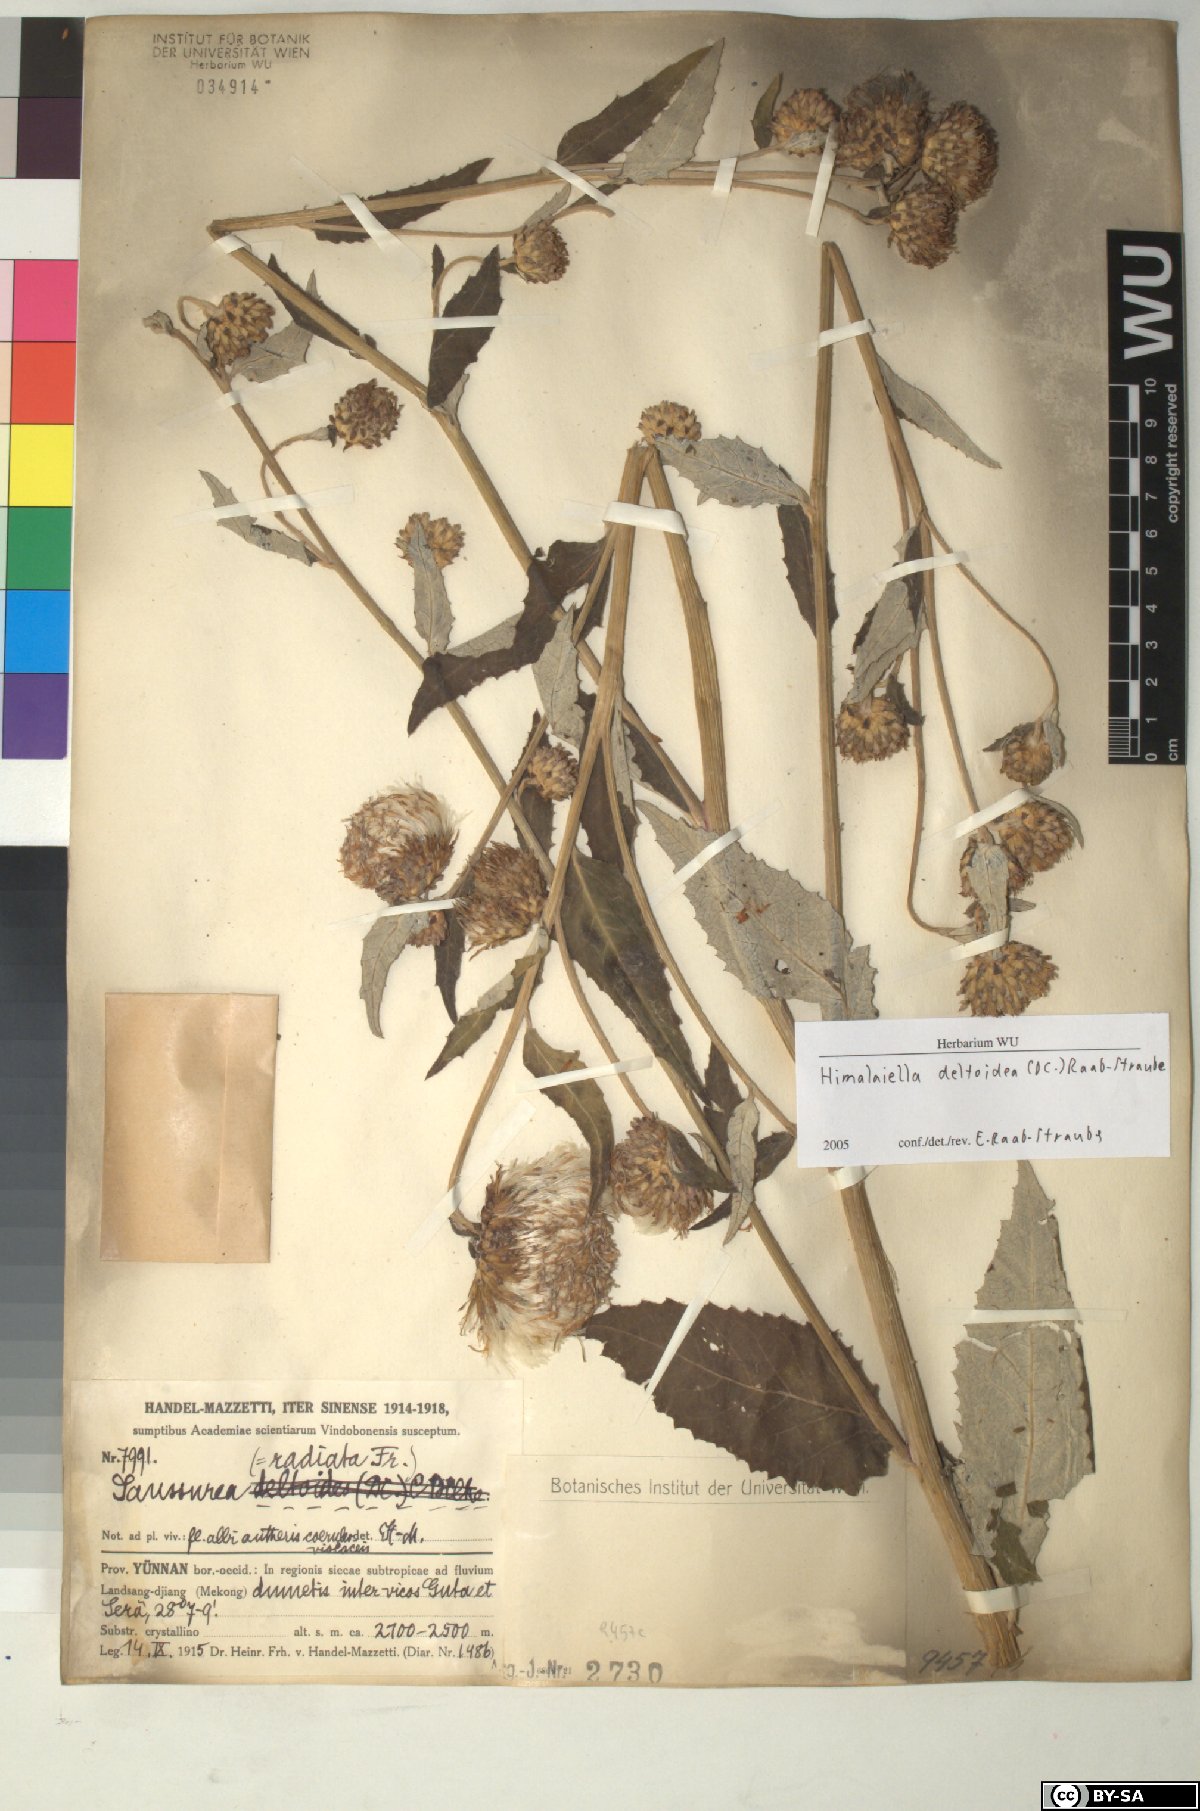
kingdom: Plantae
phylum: Tracheophyta
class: Magnoliopsida
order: Asterales
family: Asteraceae
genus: Jurinea
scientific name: Jurinea deltoidea
